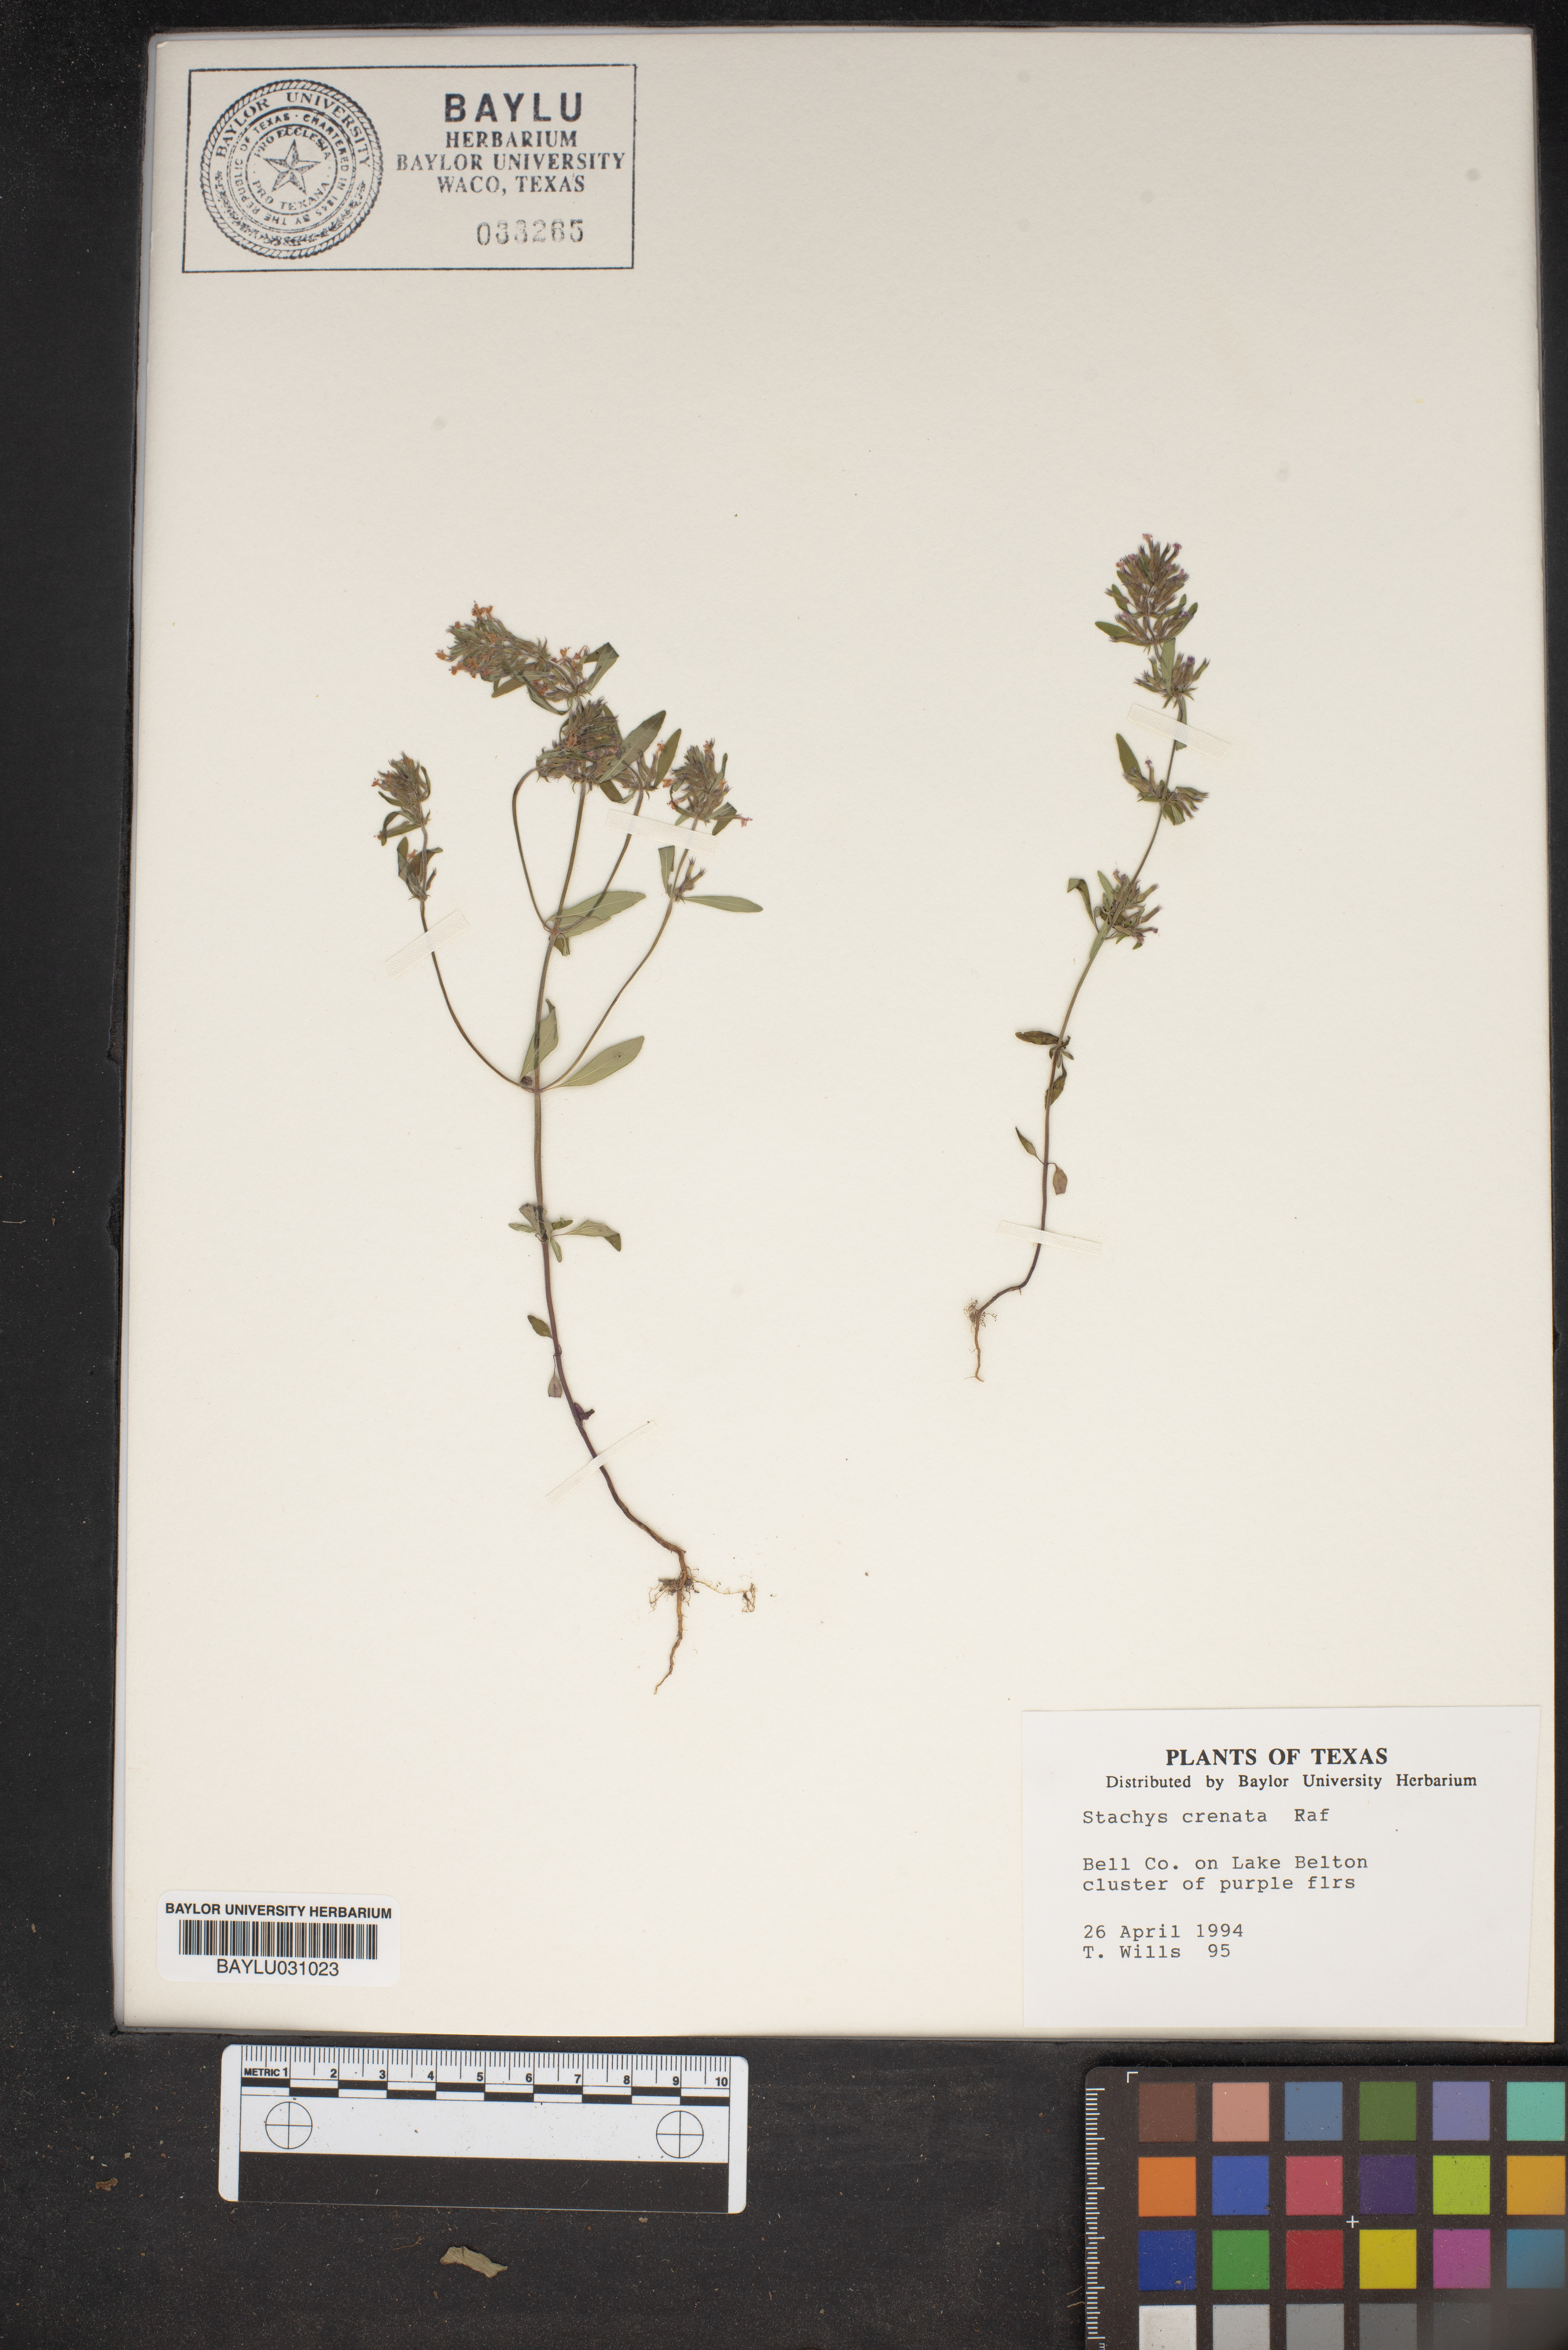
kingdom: Plantae
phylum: Tracheophyta
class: Magnoliopsida
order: Lamiales
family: Lamiaceae
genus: Stachys
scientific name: Stachys agraria
